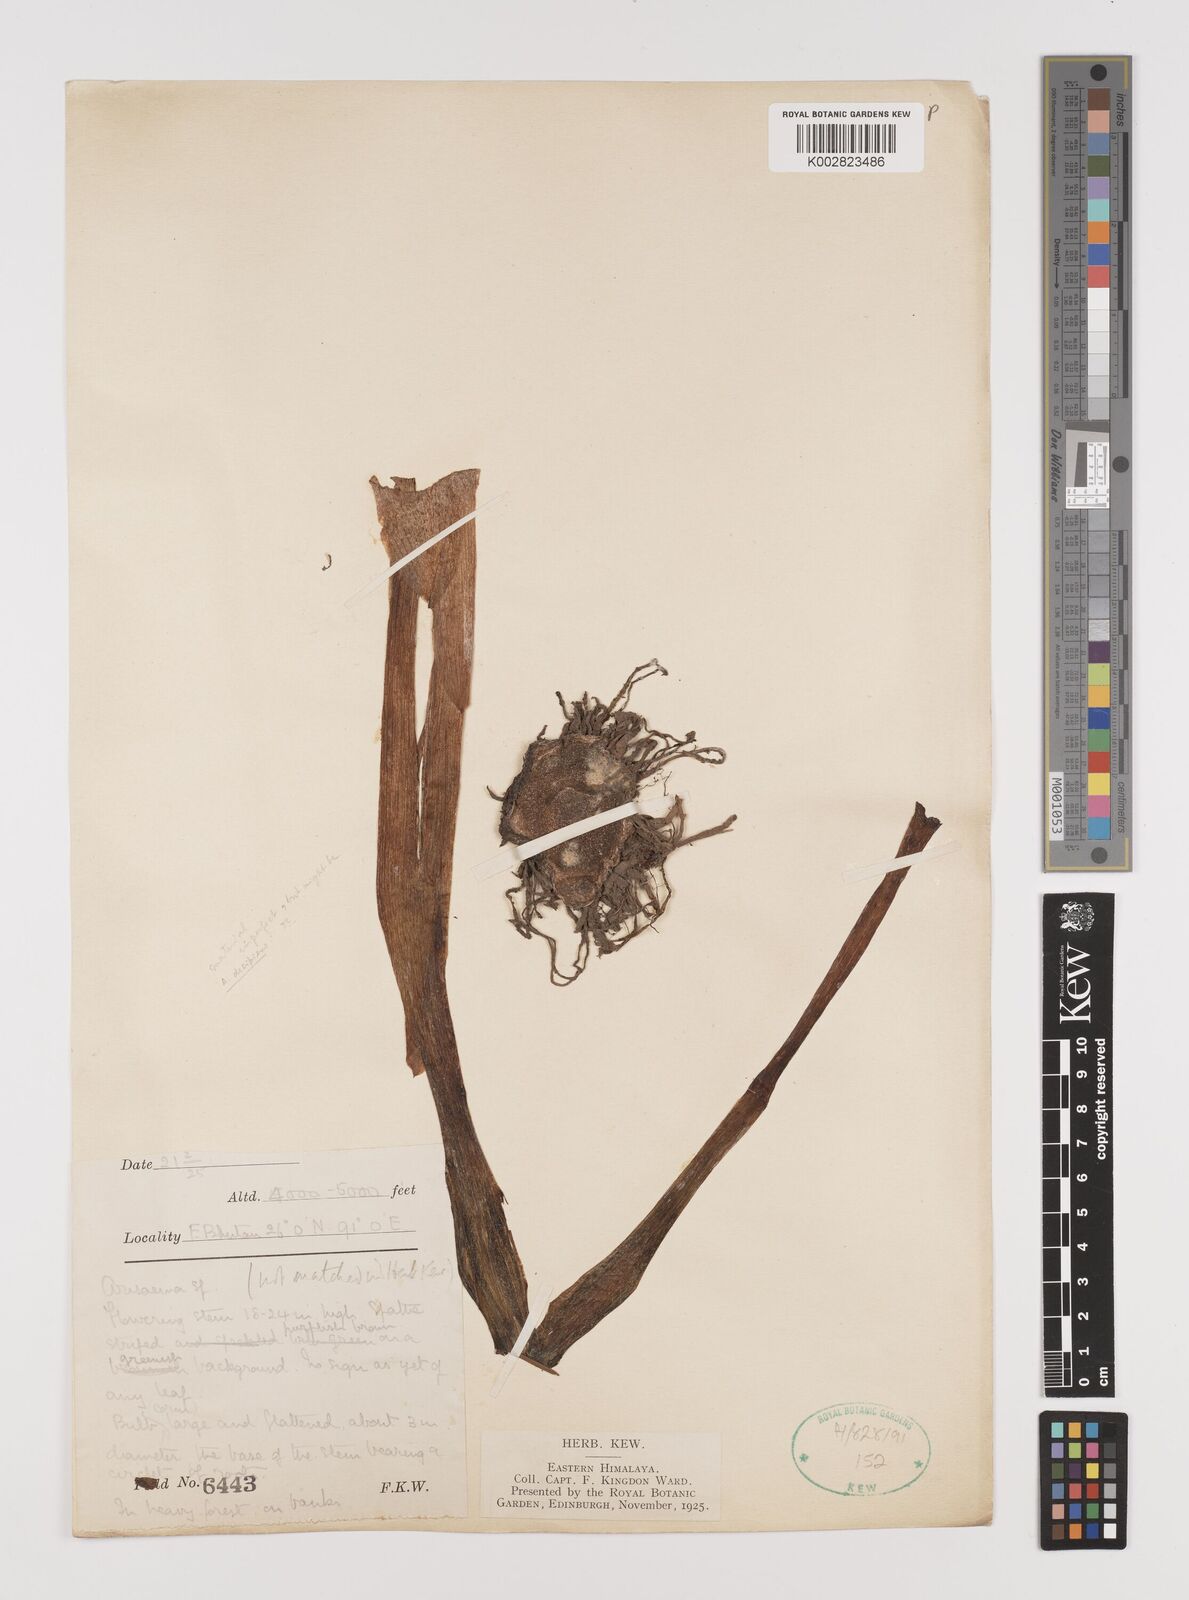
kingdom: Plantae
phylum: Tracheophyta
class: Liliopsida
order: Alismatales
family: Araceae
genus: Arisaema
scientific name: Arisaema
